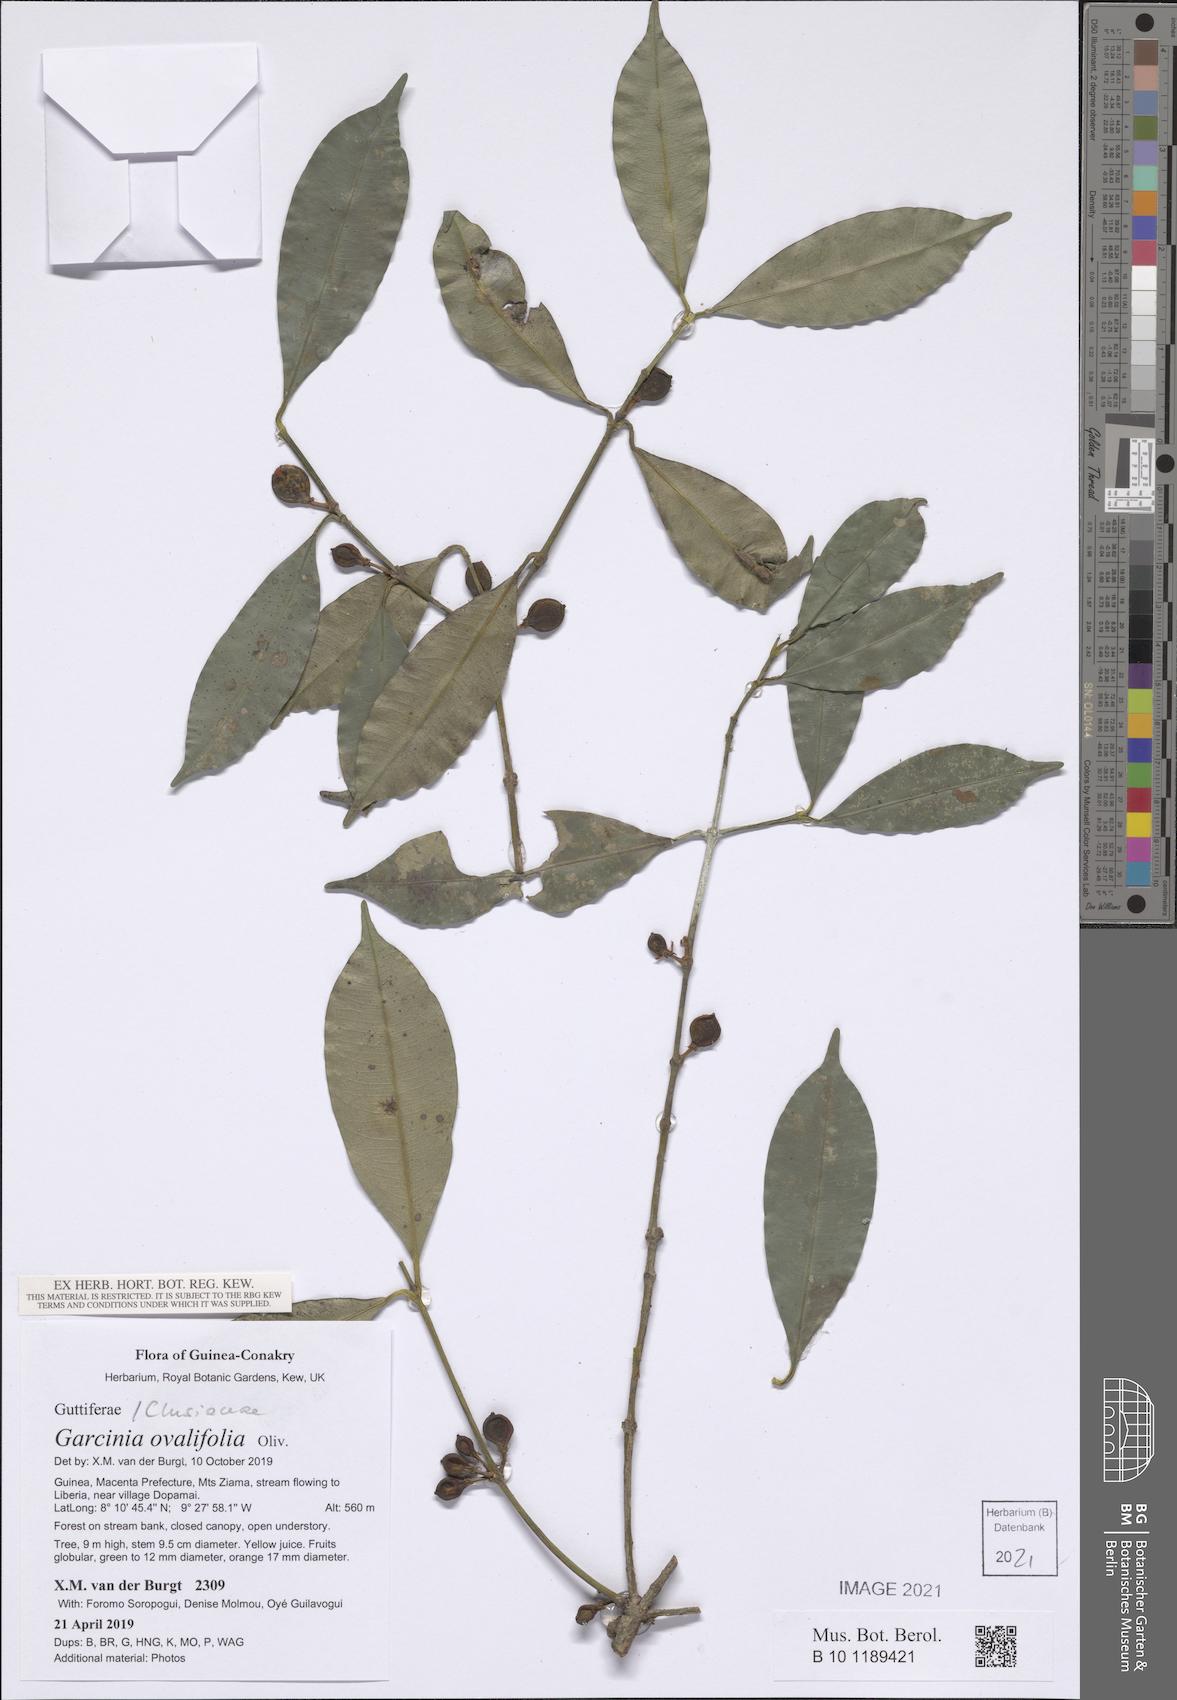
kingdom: Plantae
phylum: Tracheophyta
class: Magnoliopsida
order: Malpighiales
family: Clusiaceae
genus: Garcinia
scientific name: Garcinia ovalifolia
